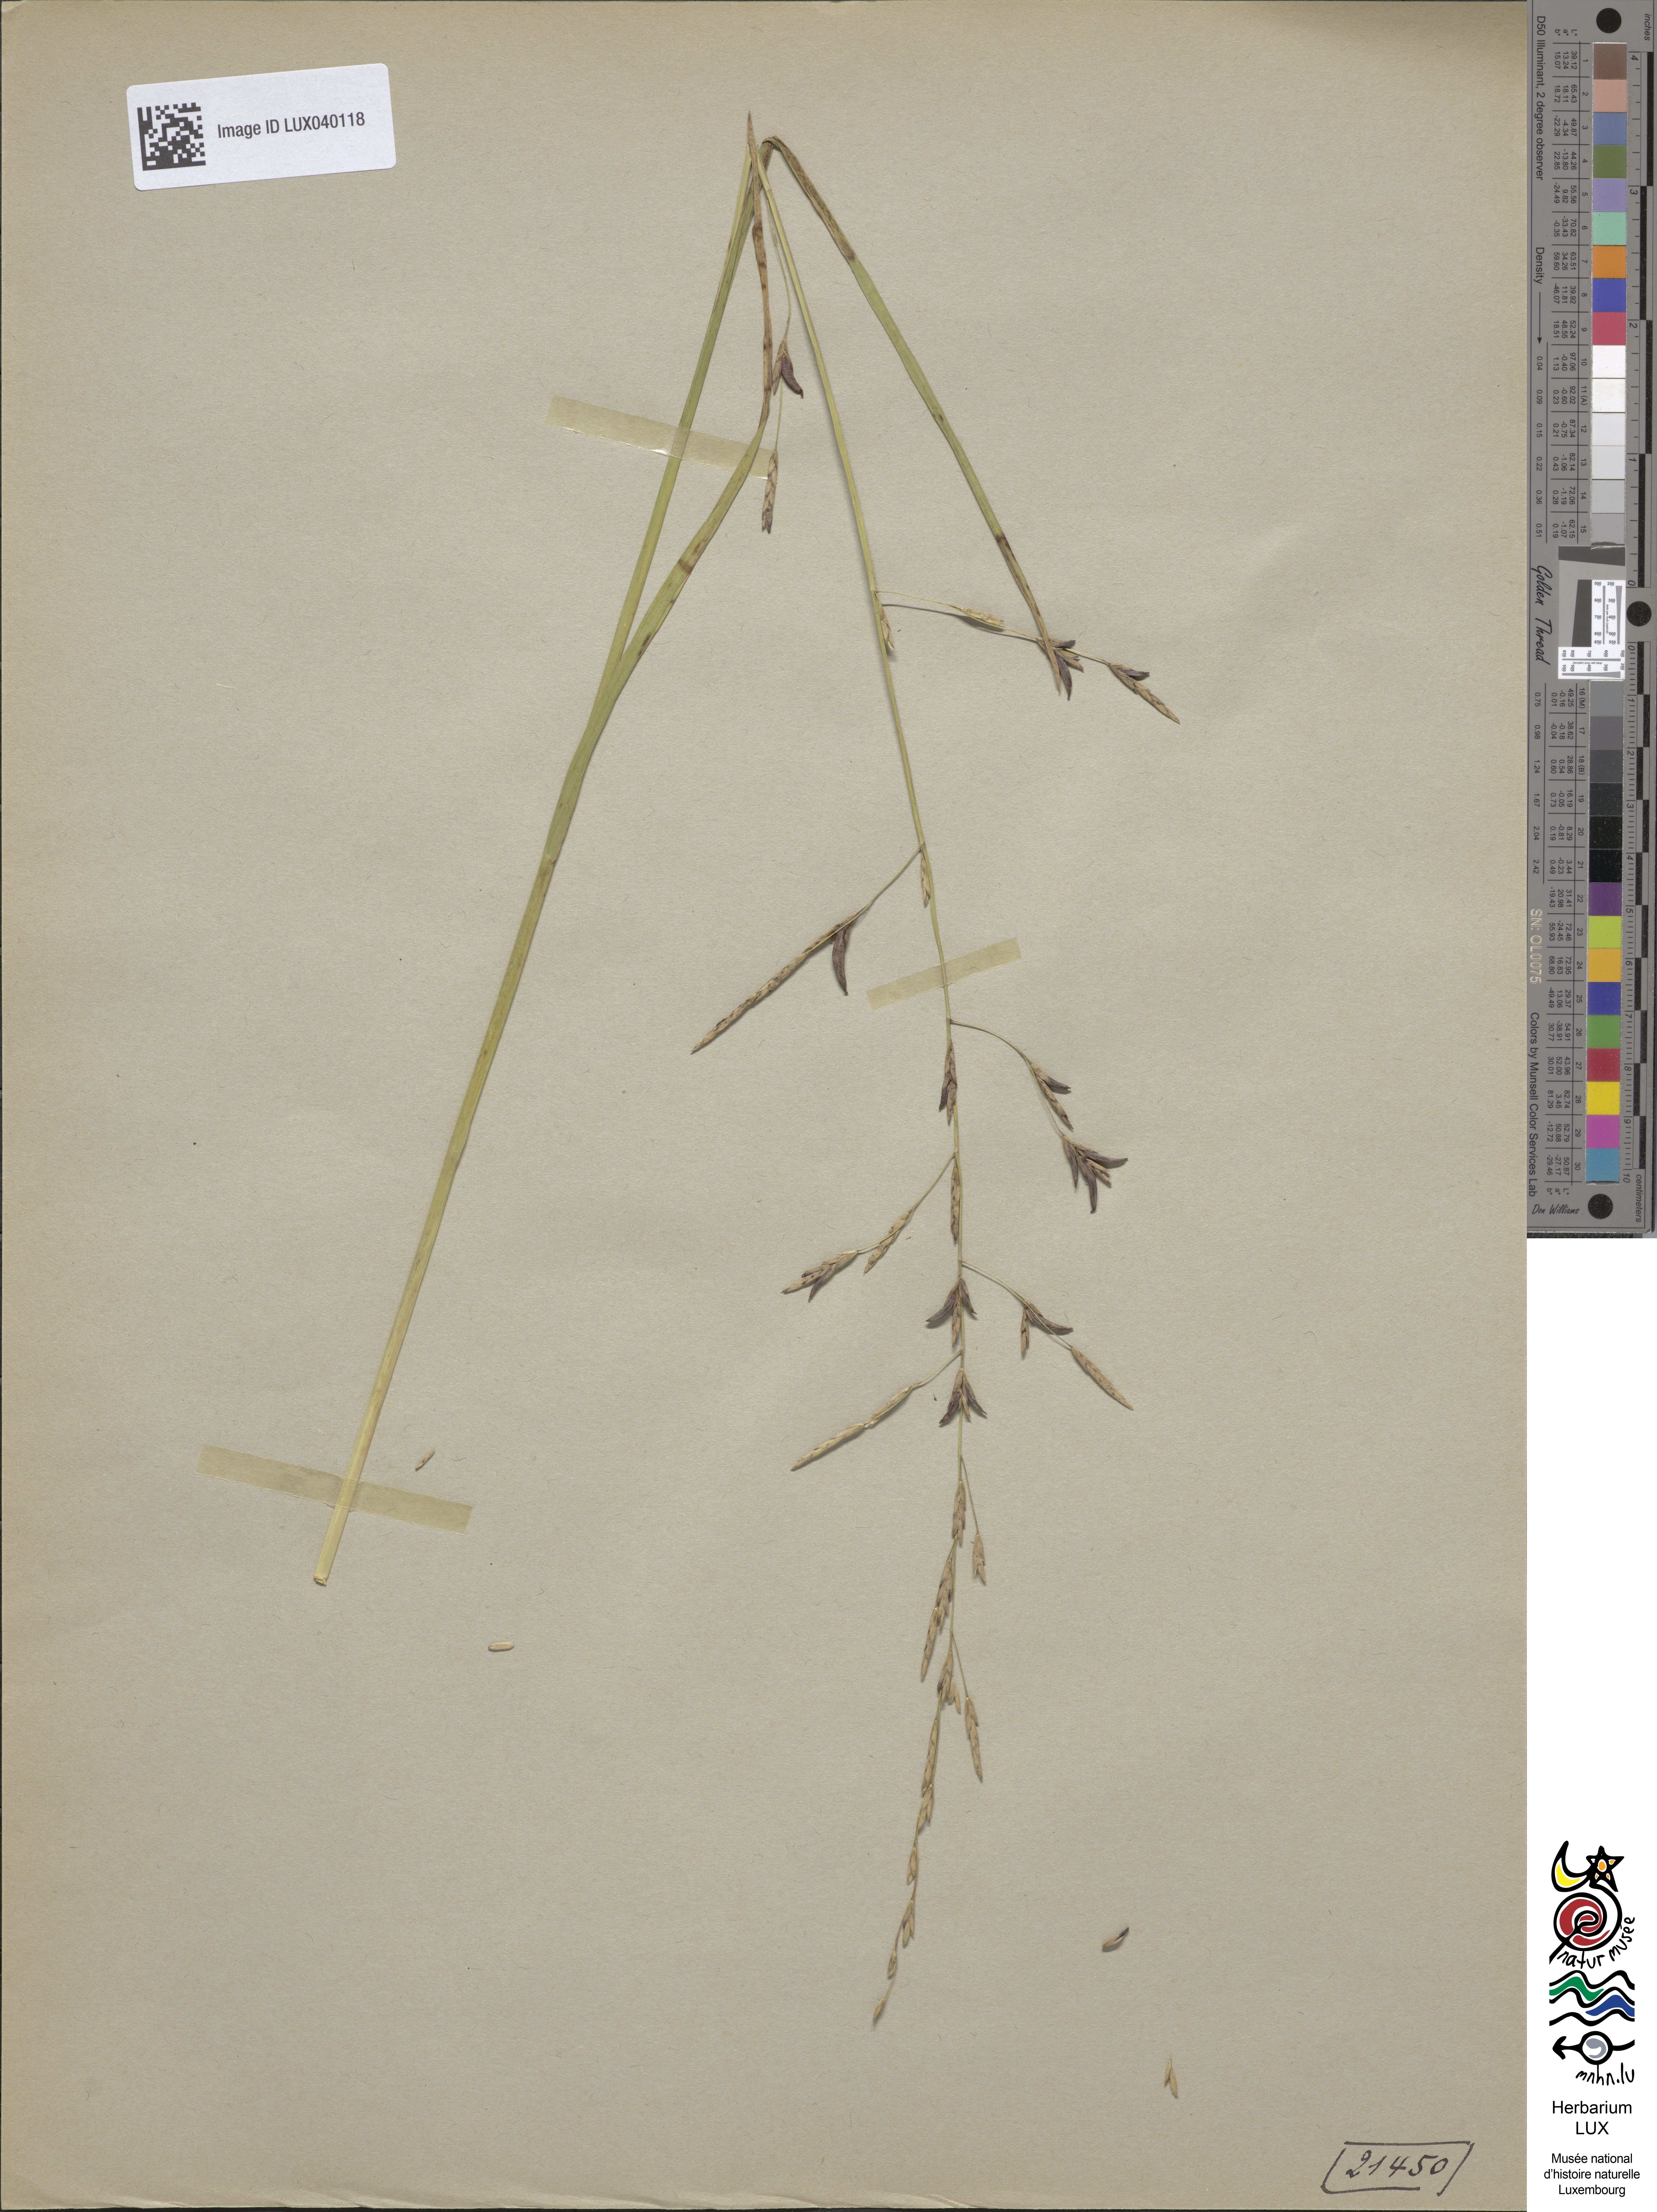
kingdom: Plantae
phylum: Tracheophyta
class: Liliopsida
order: Poales
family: Poaceae
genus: Glyceria
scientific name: Glyceria fluitans
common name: Floating sweet-grass
